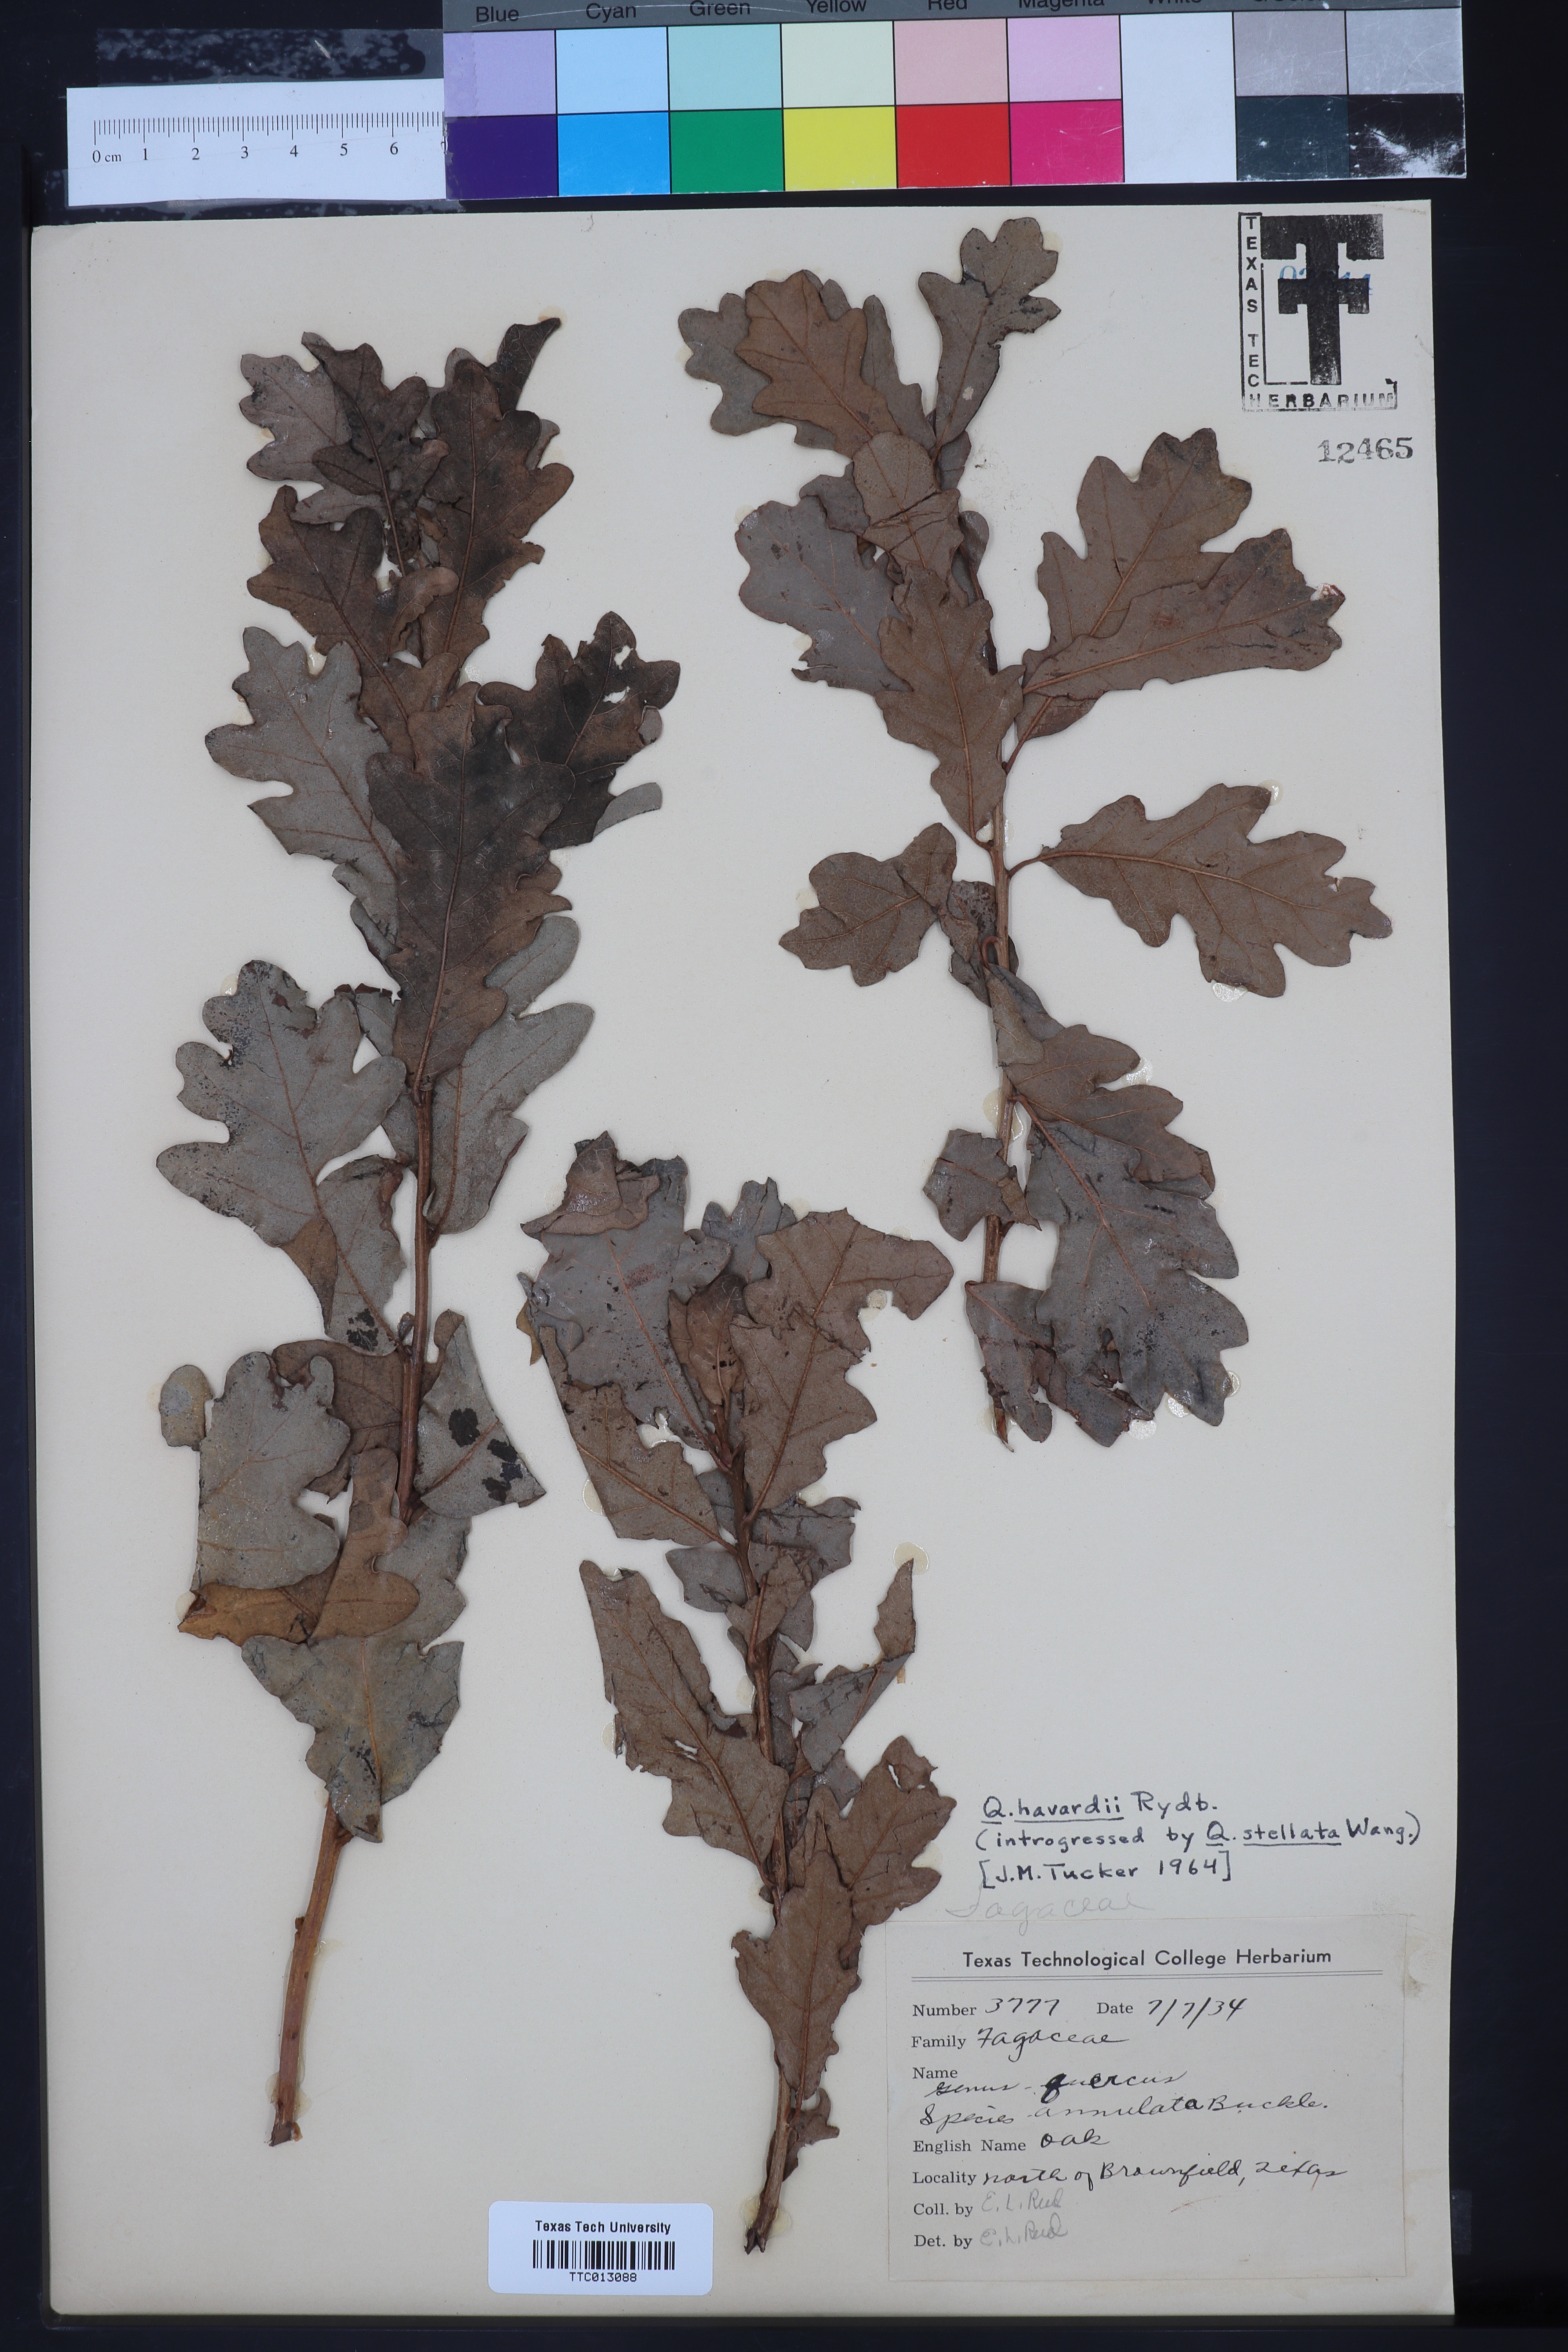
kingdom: Plantae
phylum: Tracheophyta
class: Magnoliopsida
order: Fagales
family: Fagaceae
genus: Quercus
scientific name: Quercus havardii
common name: Shinnery oak
